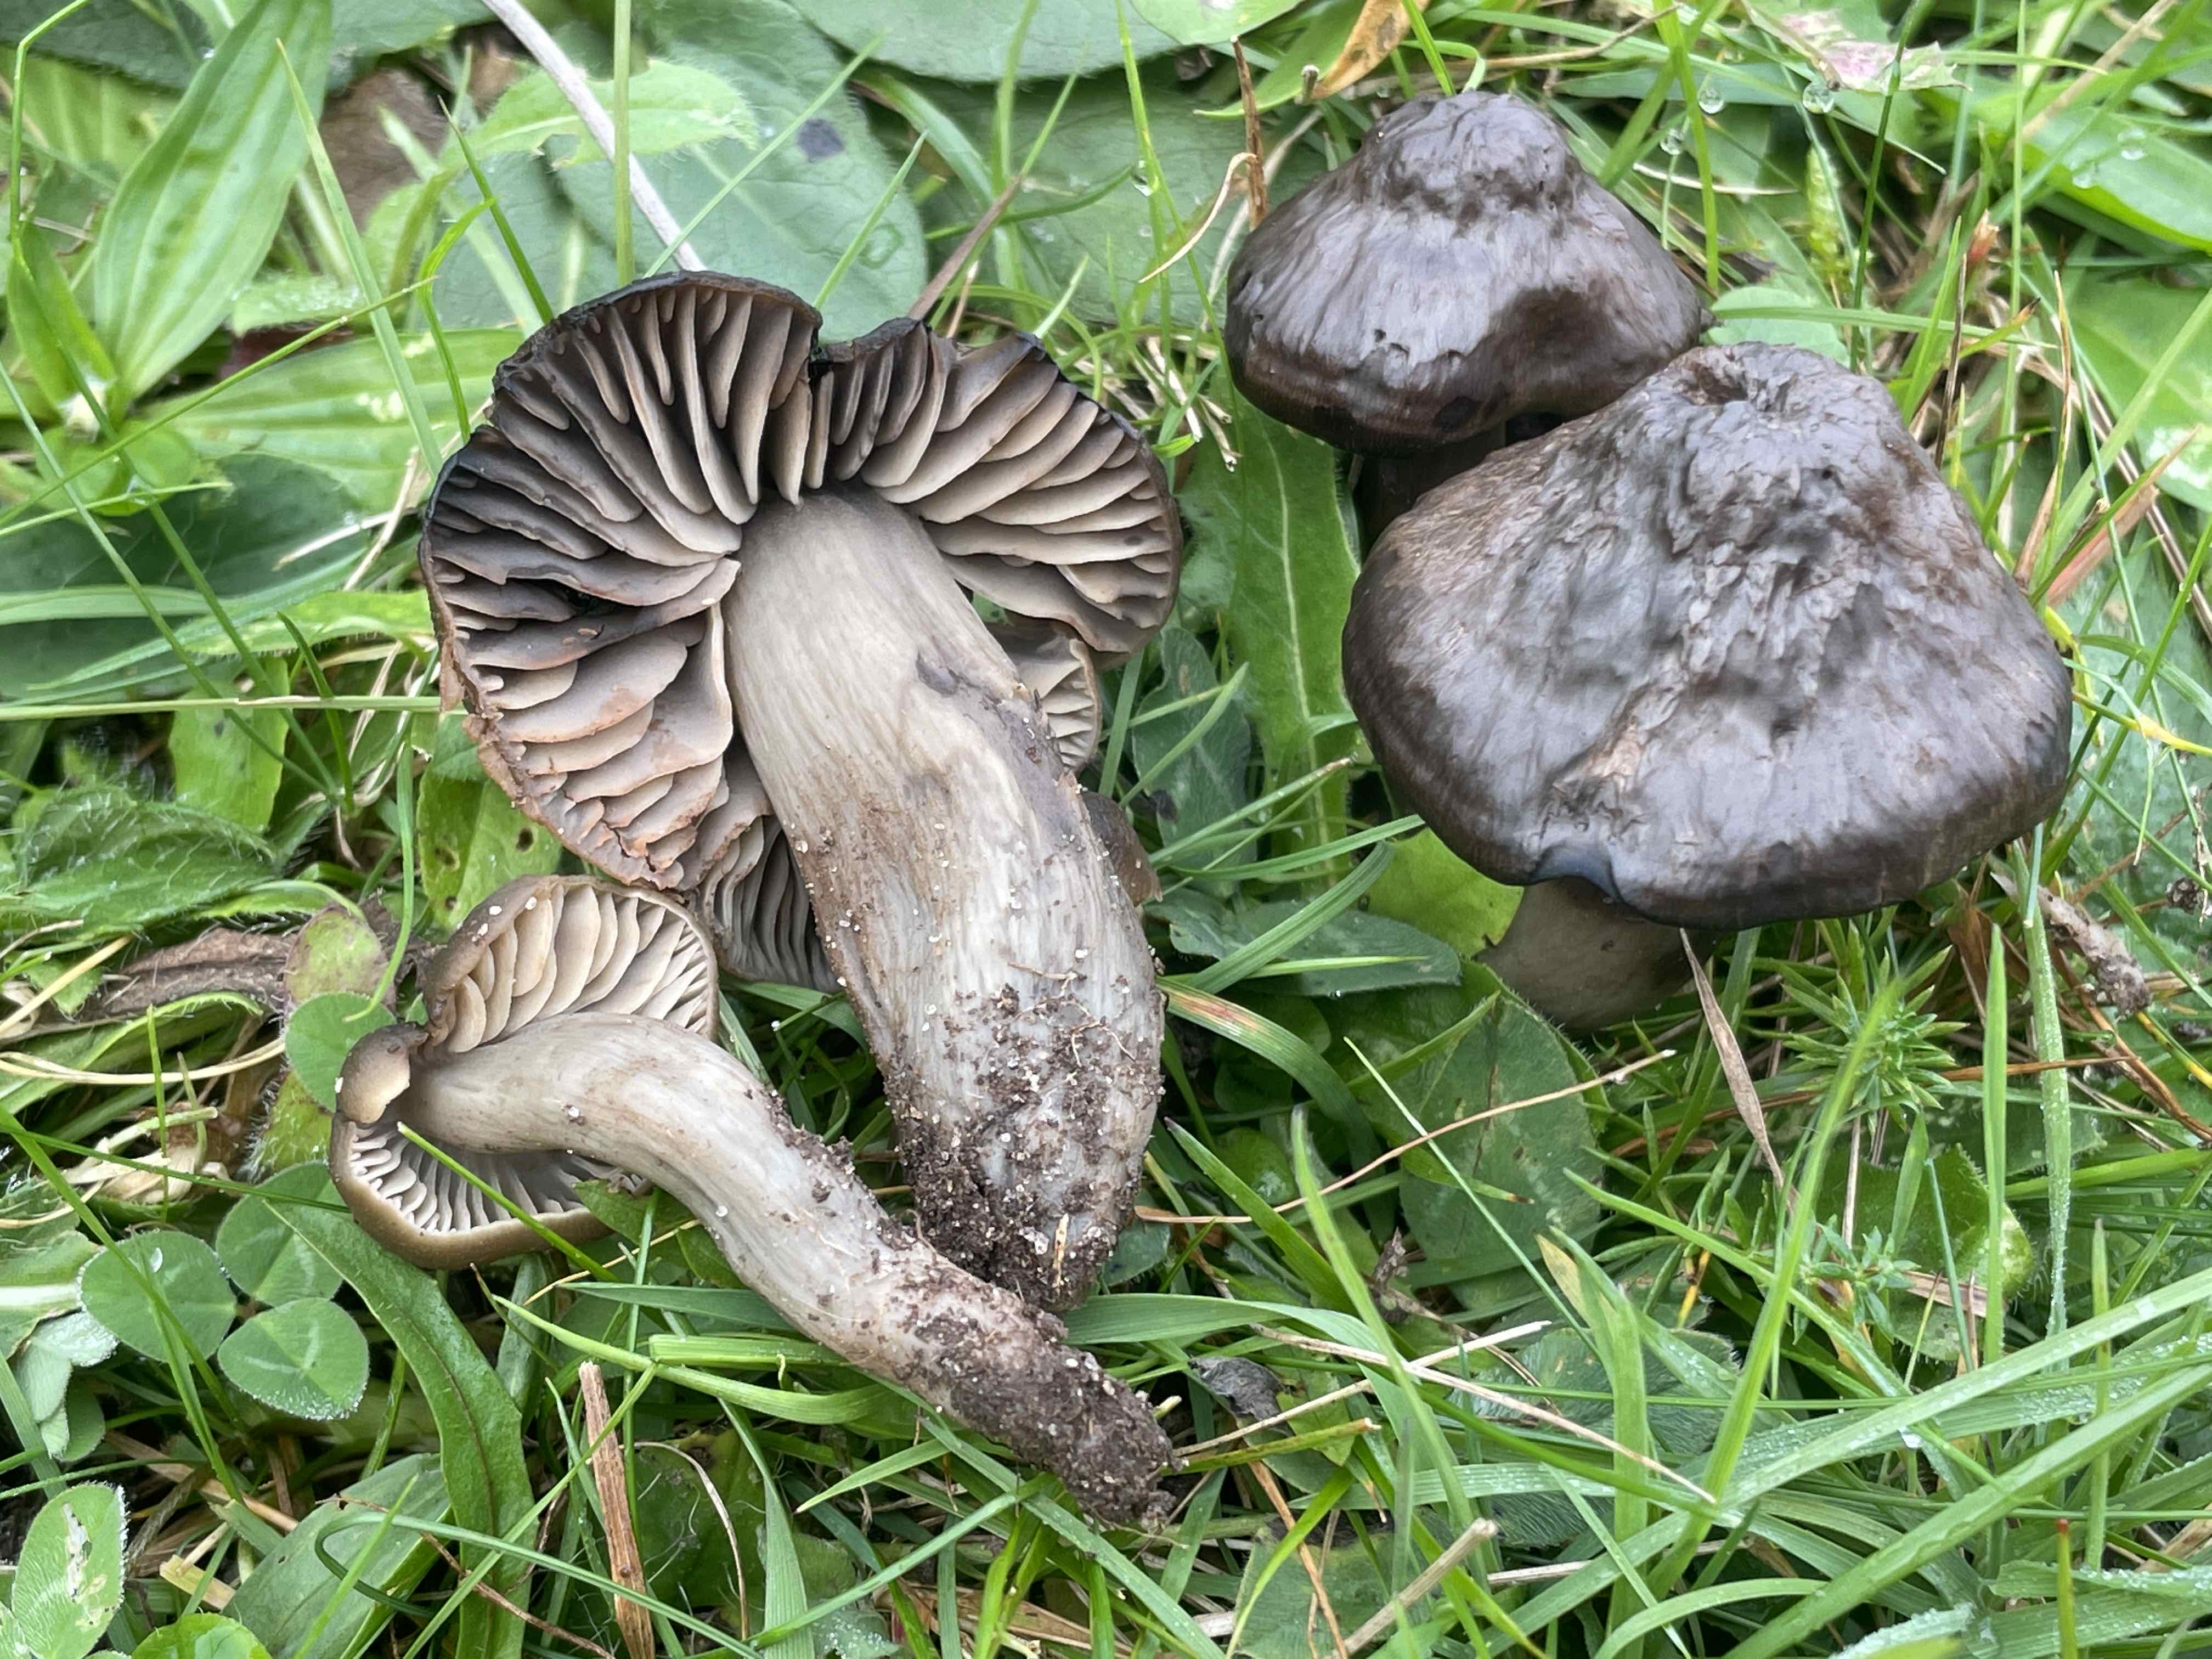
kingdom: Fungi
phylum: Basidiomycota
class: Agaricomycetes
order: Agaricales
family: Hygrophoraceae
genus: Neohygrocybe
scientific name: Neohygrocybe ovina
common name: rødmende vokshat
